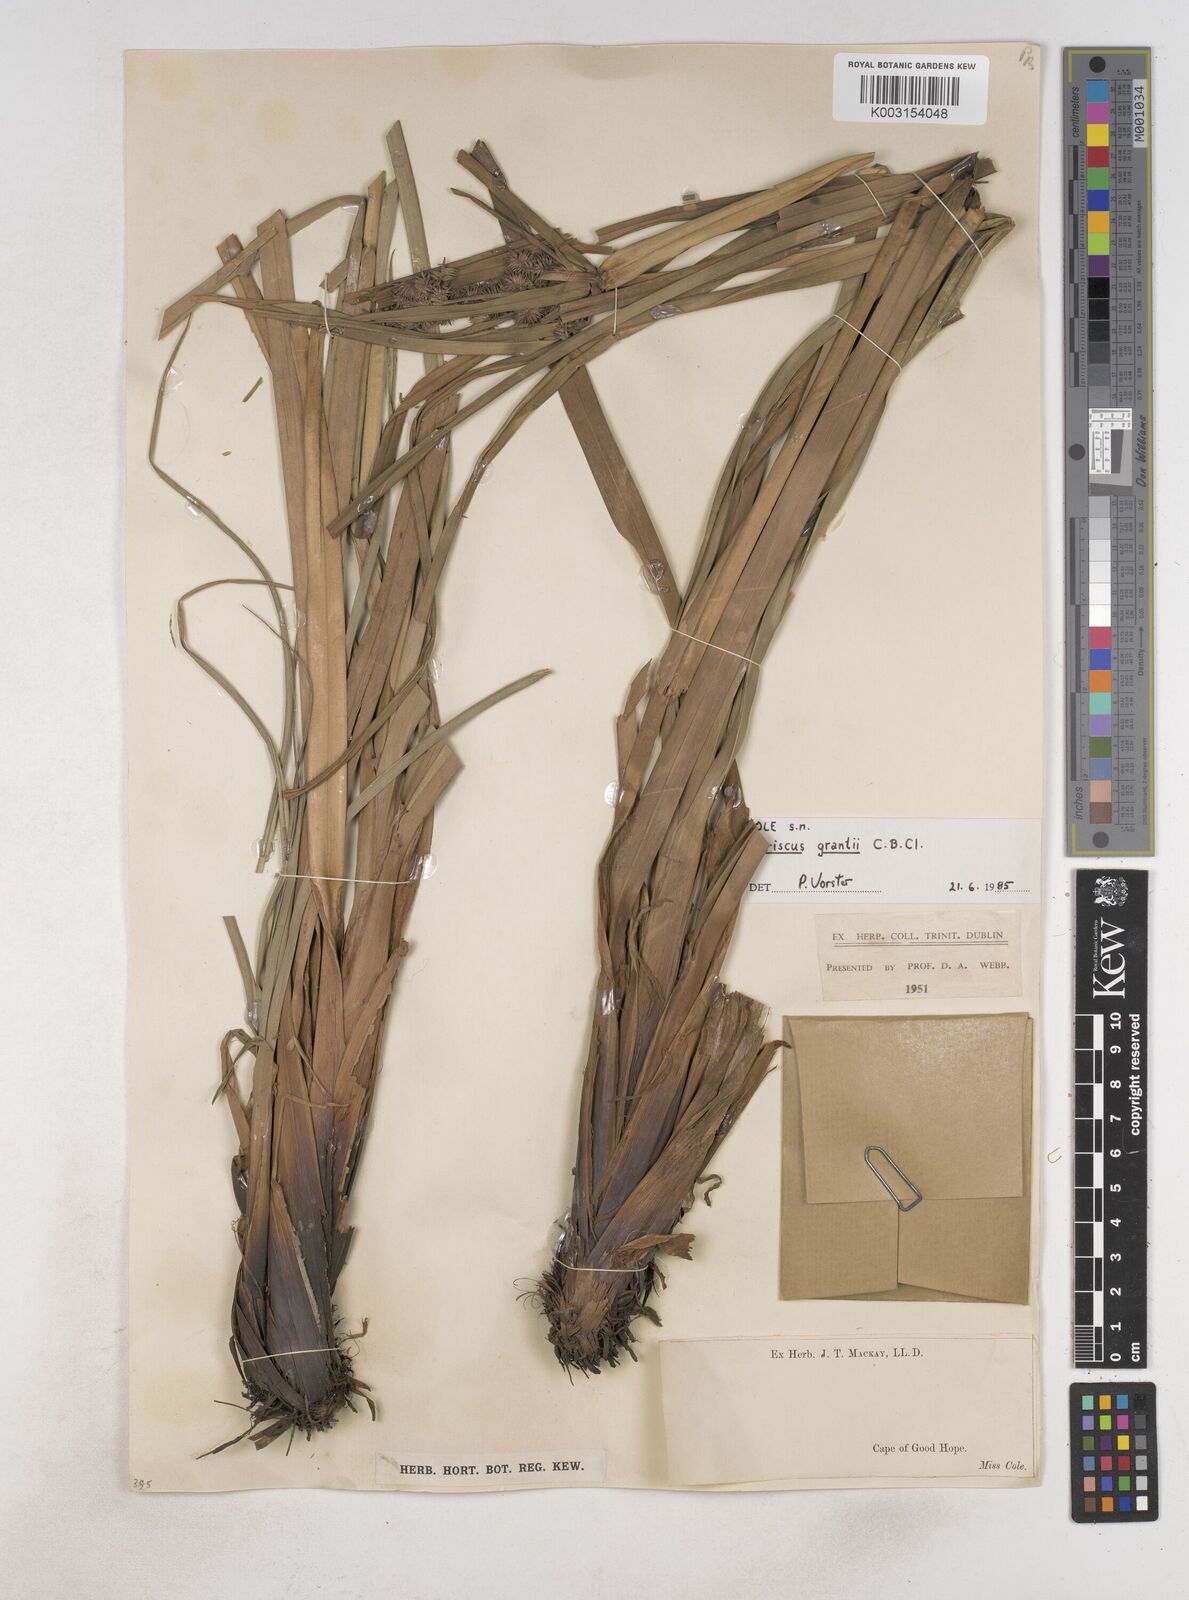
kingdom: Plantae
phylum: Tracheophyta
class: Liliopsida
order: Poales
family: Cyperaceae
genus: Cyperus
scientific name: Cyperus owanii
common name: Owan's flatsedge
